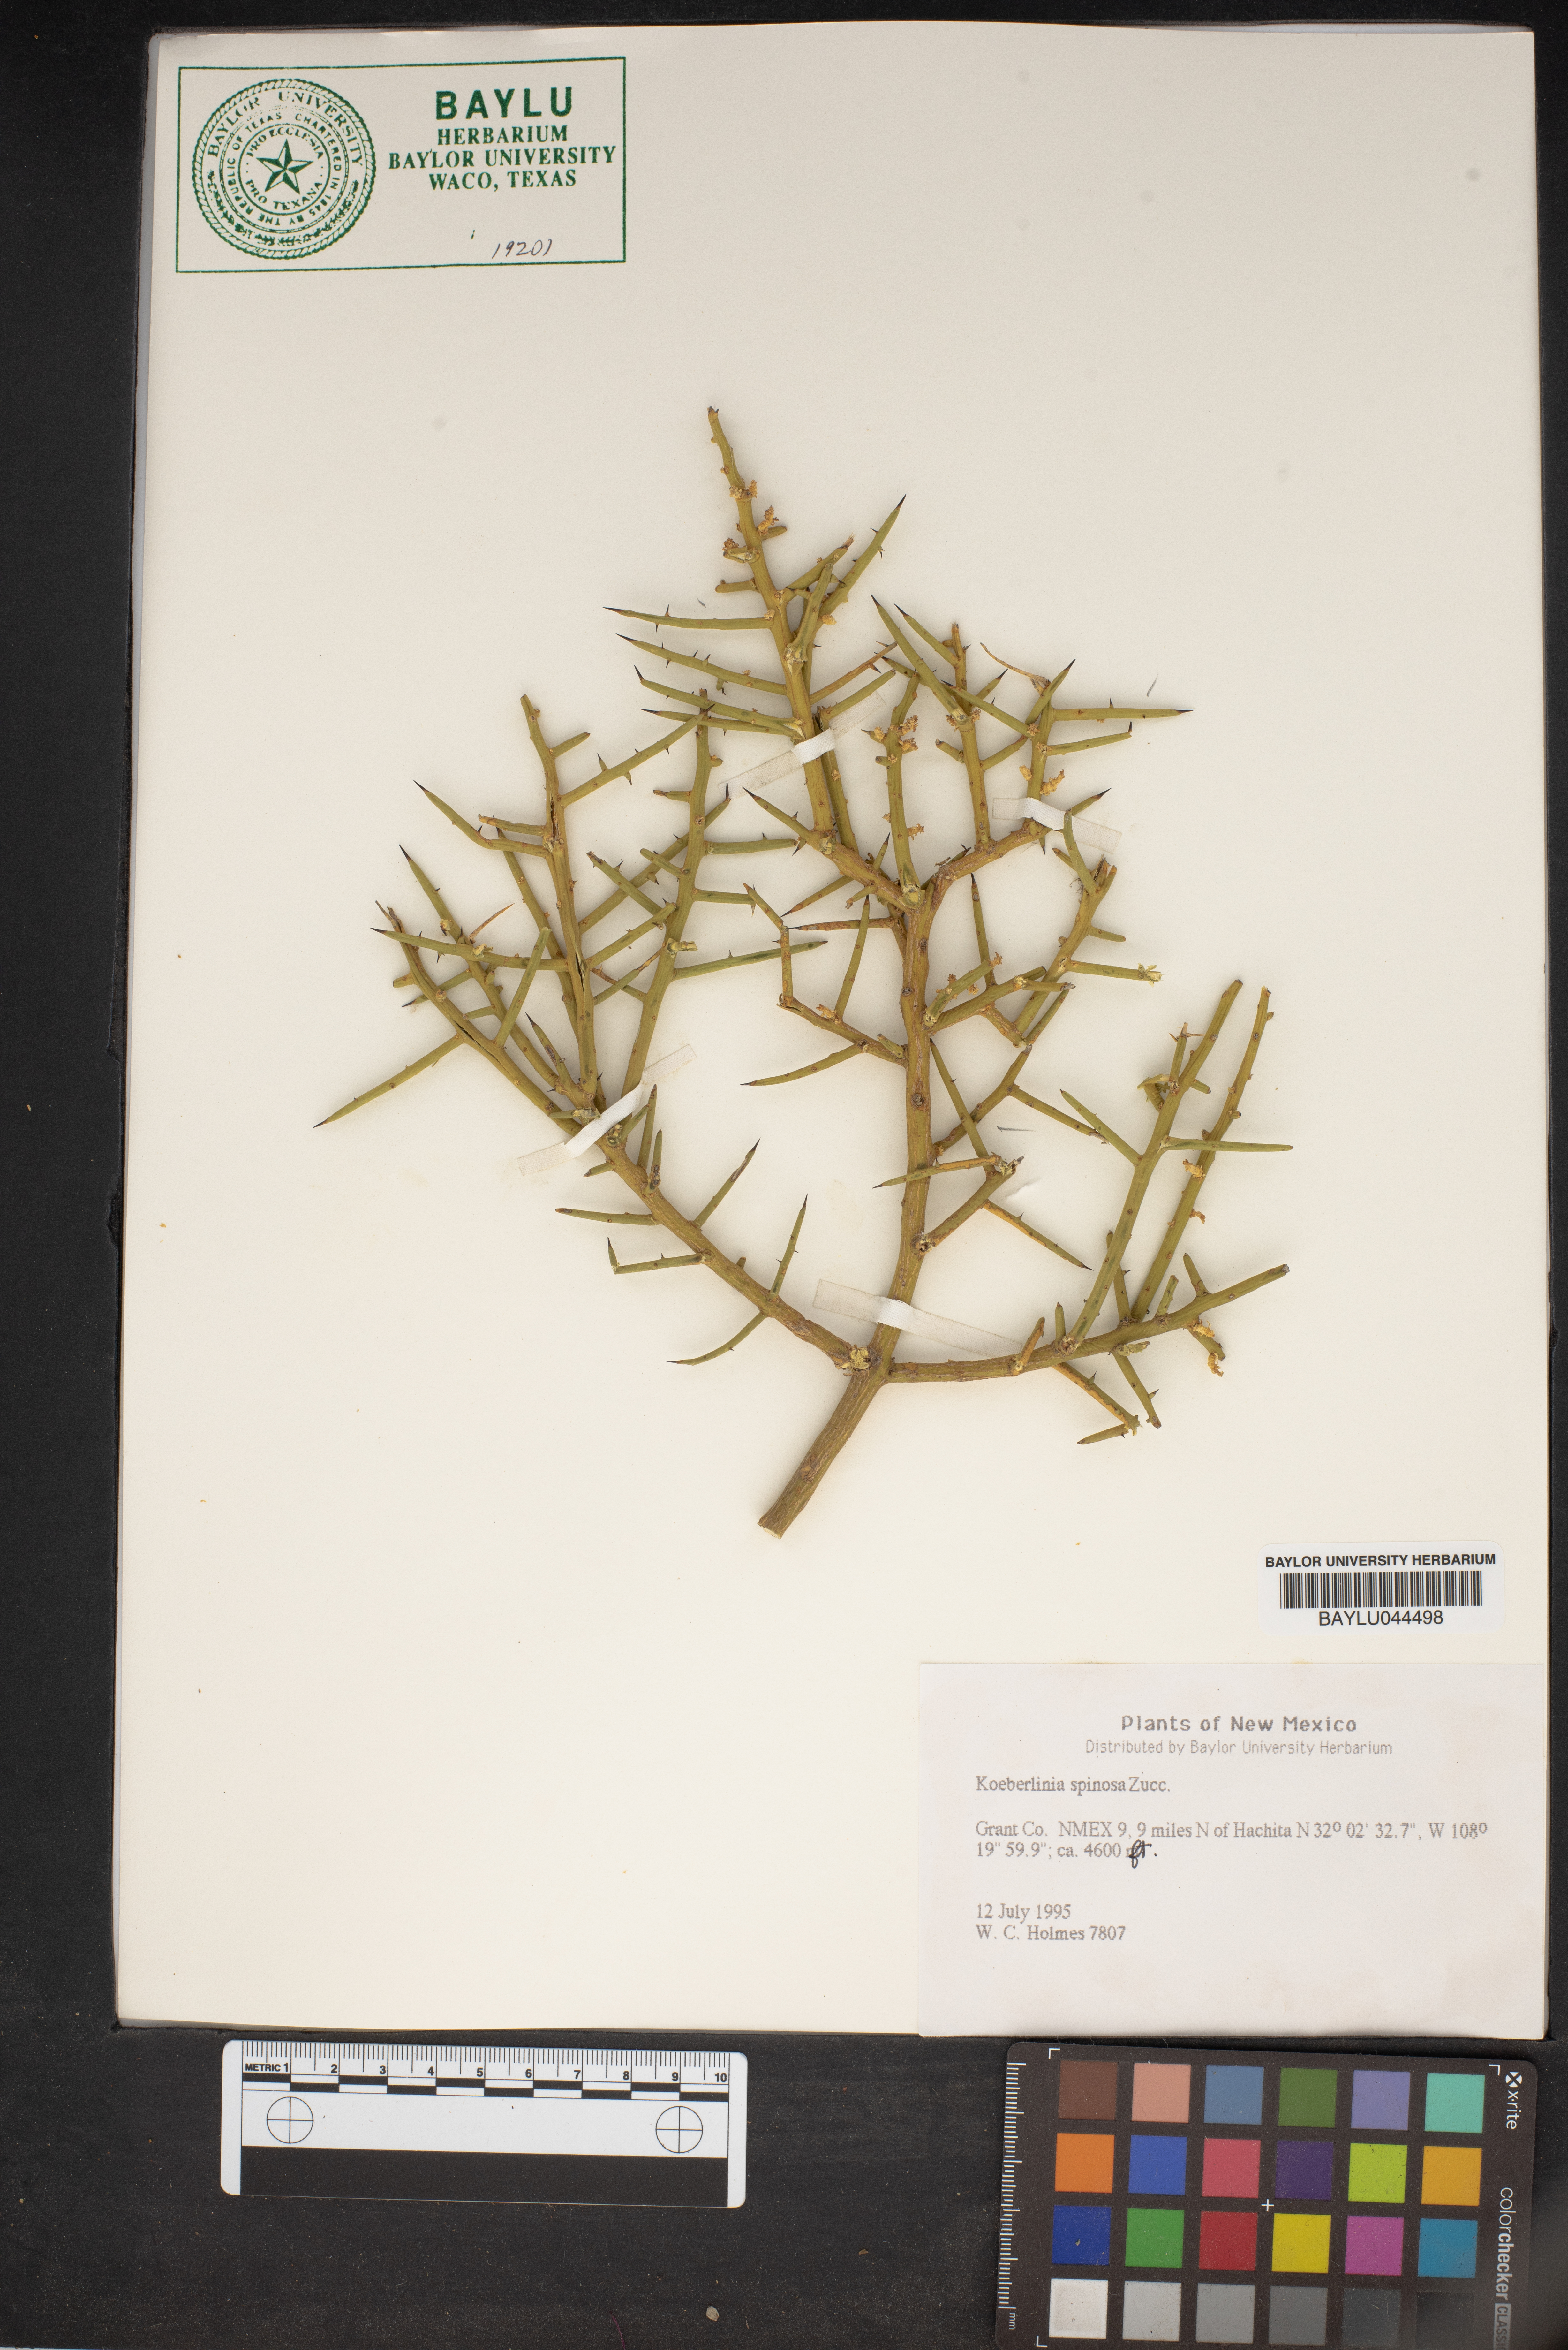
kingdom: Plantae
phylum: Tracheophyta
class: Magnoliopsida
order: Brassicales
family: Koeberliniaceae
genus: Koeberlinia
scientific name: Koeberlinia spinosa
